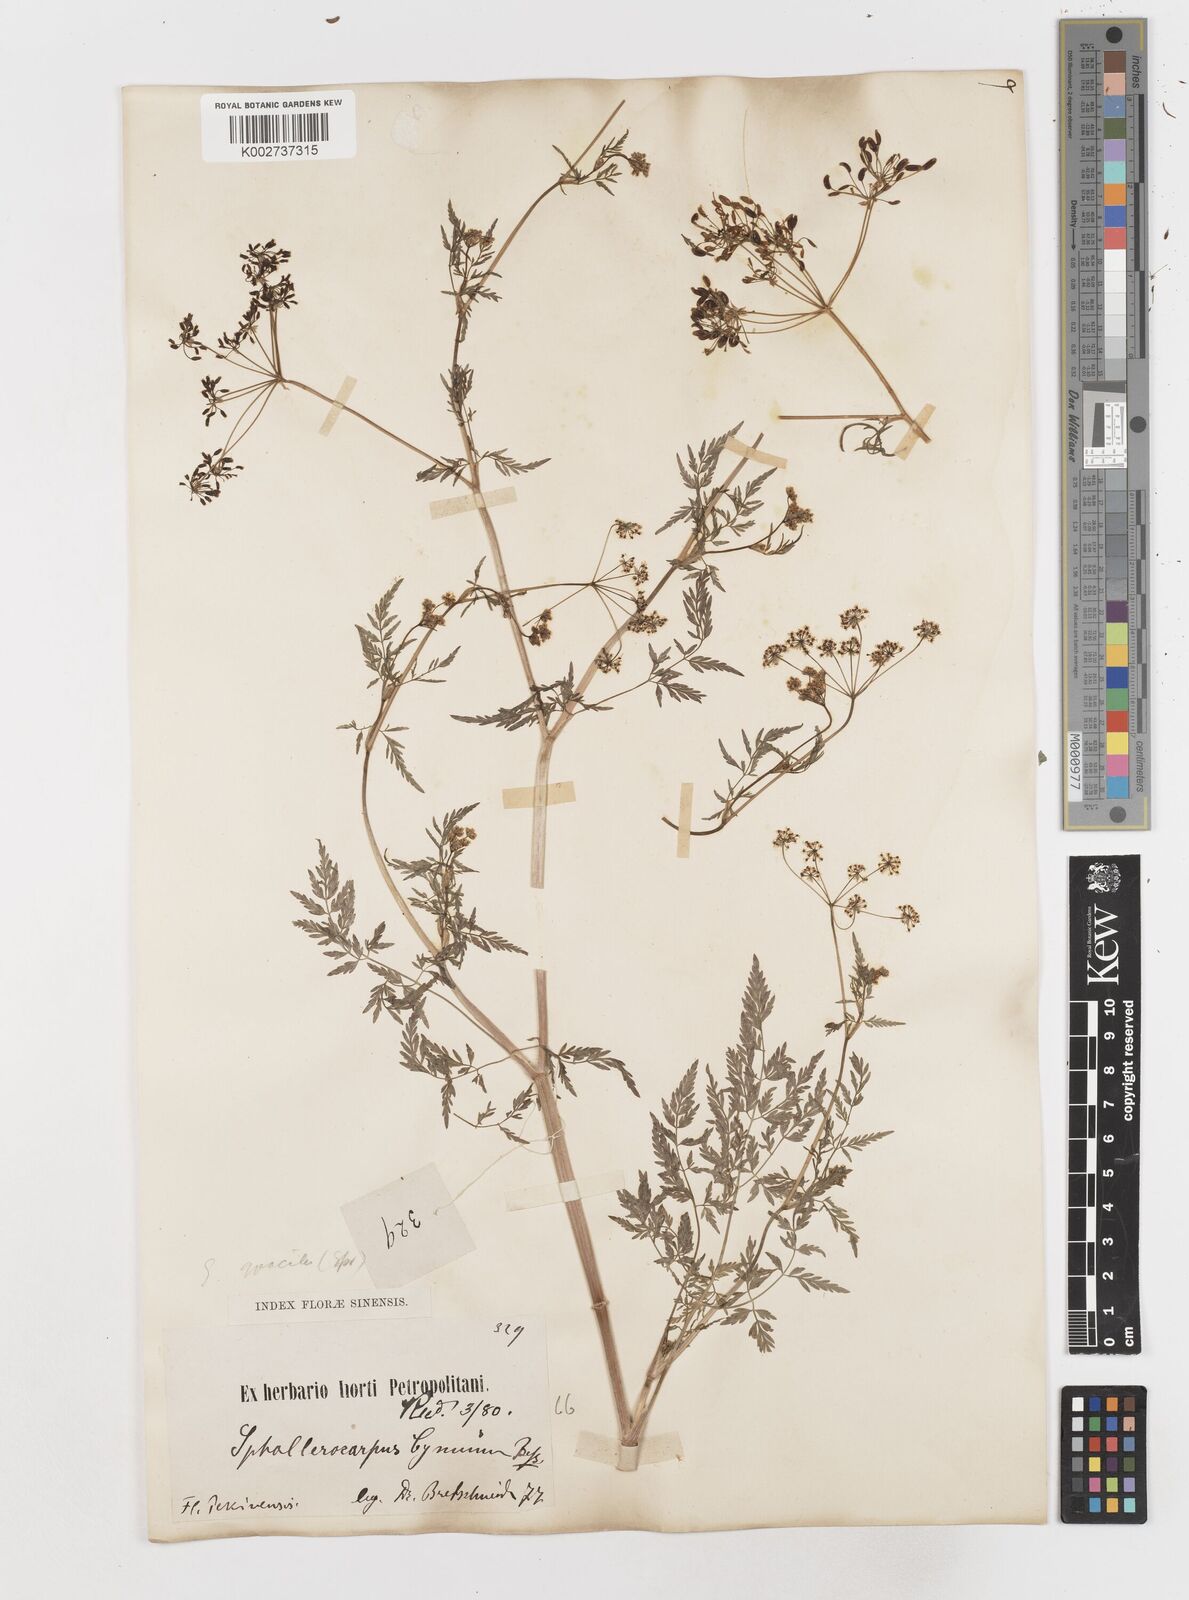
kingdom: Plantae
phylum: Tracheophyta
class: Magnoliopsida
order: Apiales
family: Apiaceae
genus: Sphallerocarpus
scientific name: Sphallerocarpus gracilis
